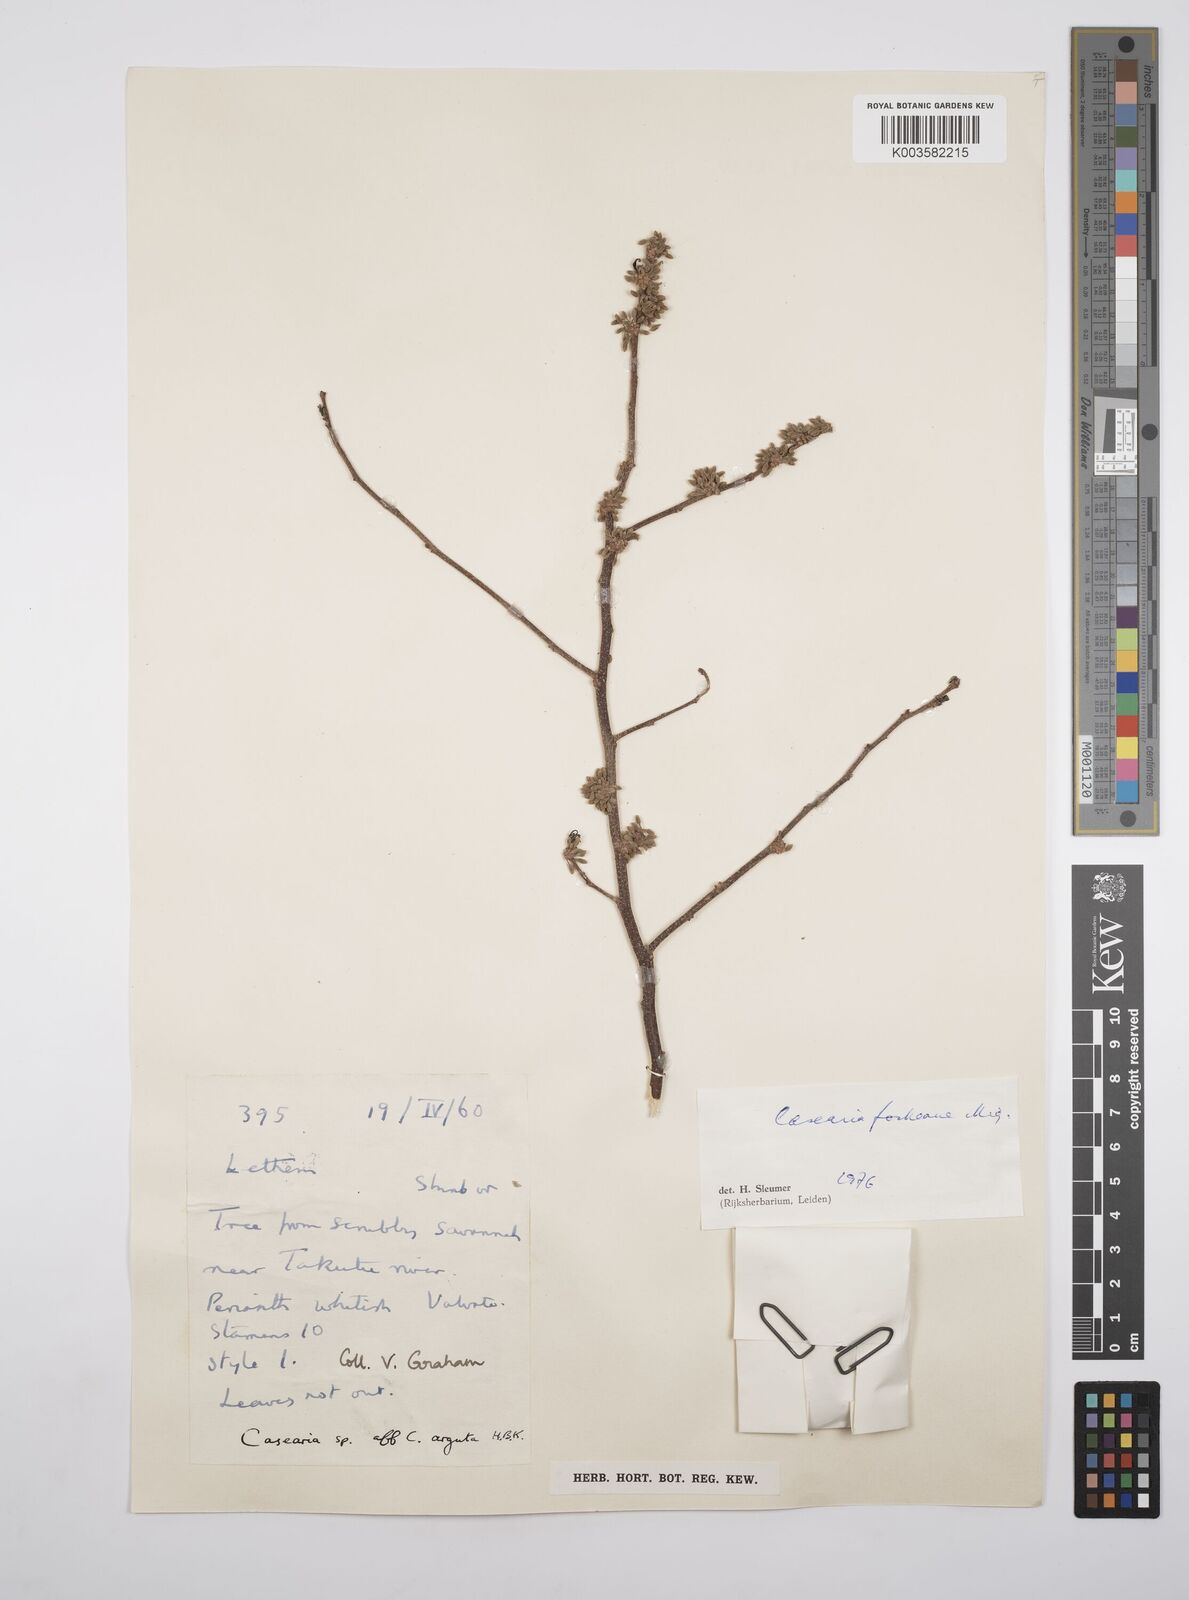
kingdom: Plantae
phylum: Tracheophyta
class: Magnoliopsida
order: Malpighiales
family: Salicaceae
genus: Casearia
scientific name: Casearia mariquitensis
